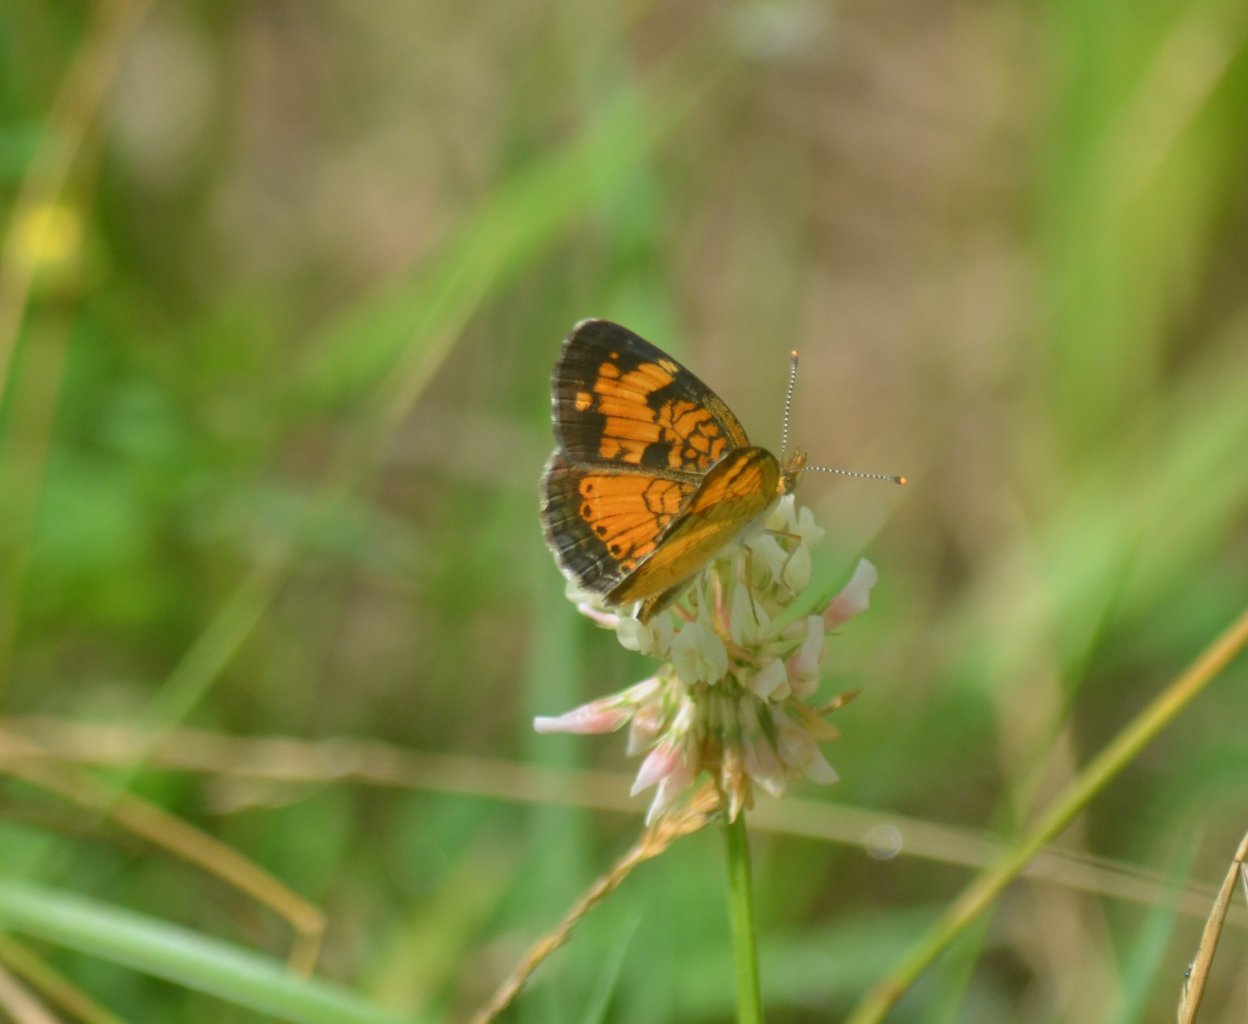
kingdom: Animalia
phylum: Arthropoda
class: Insecta
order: Lepidoptera
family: Nymphalidae
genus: Phyciodes
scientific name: Phyciodes tharos
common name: Northern Crescent
